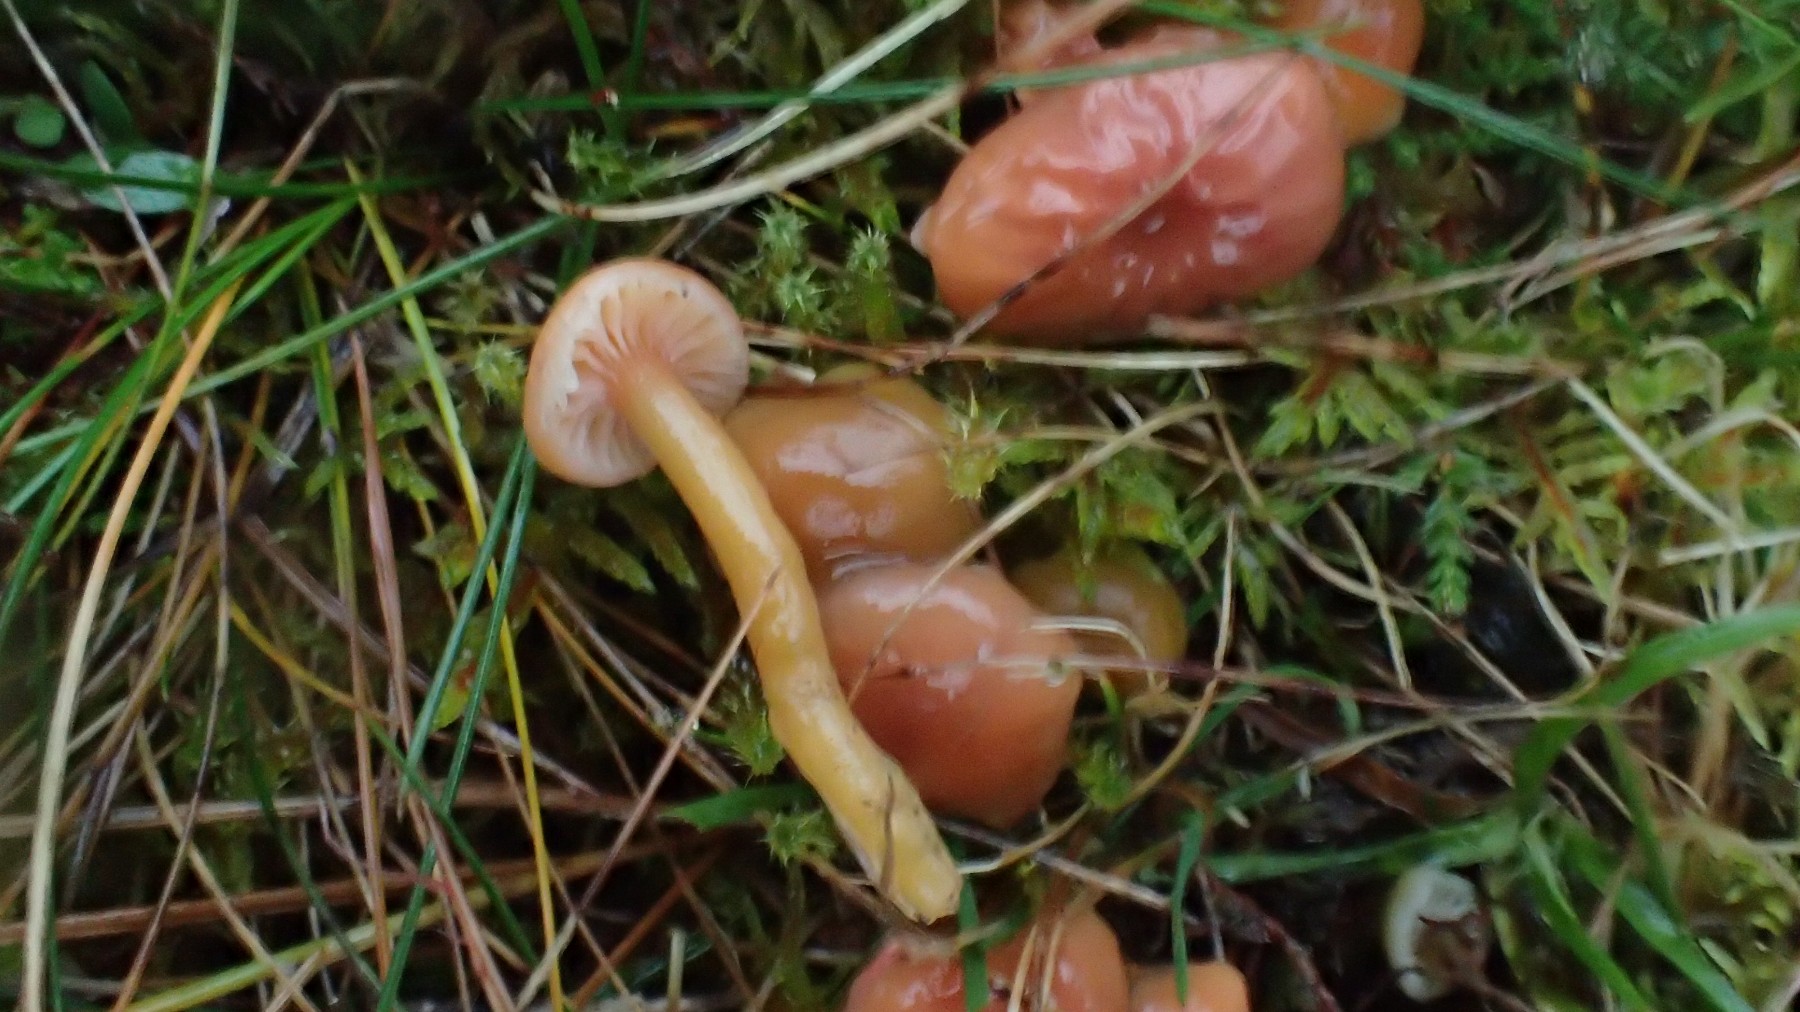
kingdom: Fungi
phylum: Basidiomycota
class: Agaricomycetes
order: Agaricales
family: Hygrophoraceae
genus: Gliophorus
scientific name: Gliophorus laetus
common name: brusk-vokshat
